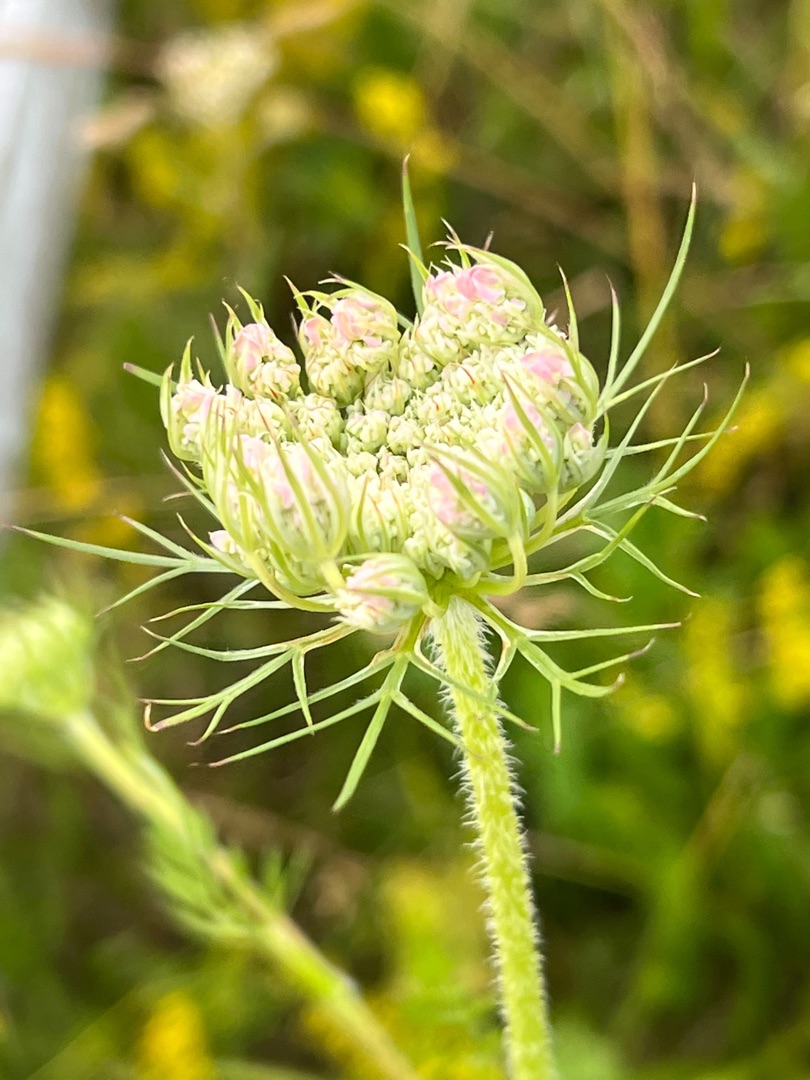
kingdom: Plantae
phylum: Tracheophyta
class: Magnoliopsida
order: Apiales
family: Apiaceae
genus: Daucus
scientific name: Daucus carota
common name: Vild gulerod
